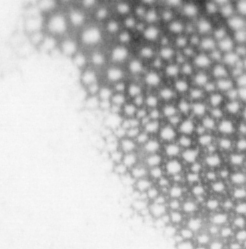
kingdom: Animalia
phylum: Chordata
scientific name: Chordata
